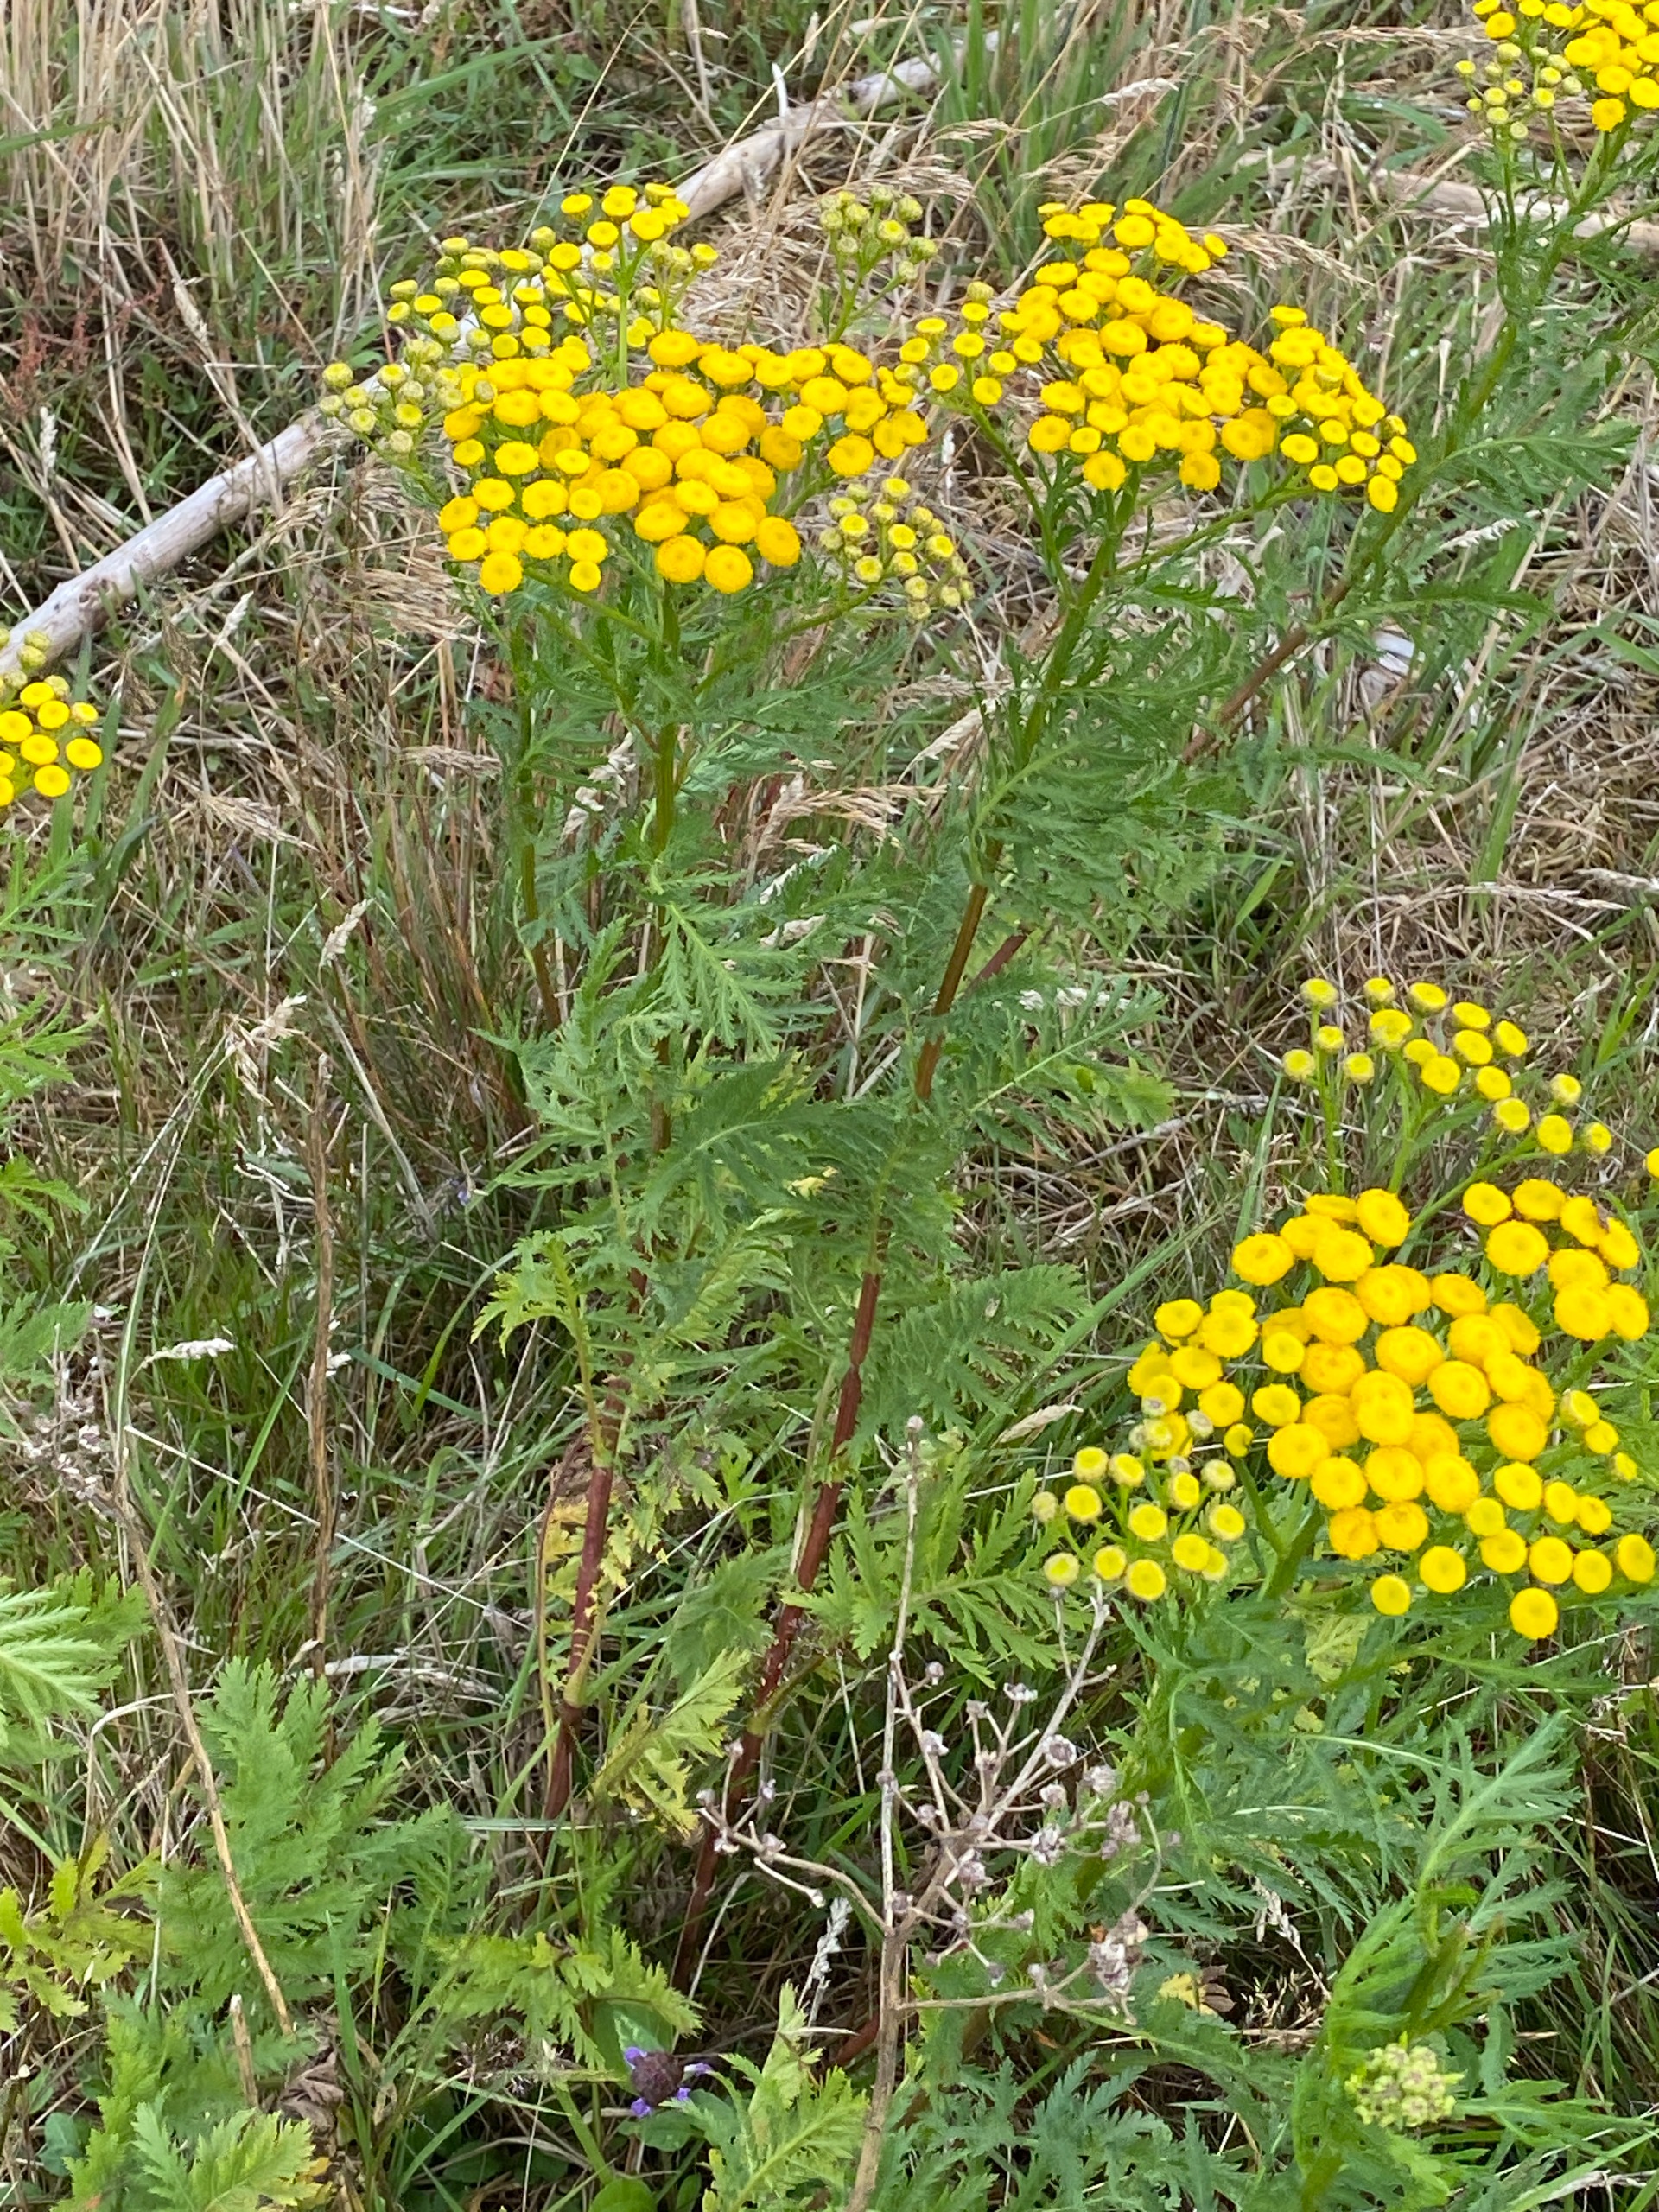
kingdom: Plantae
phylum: Tracheophyta
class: Magnoliopsida
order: Asterales
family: Asteraceae
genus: Tanacetum
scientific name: Tanacetum vulgare
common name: Rejnfan
